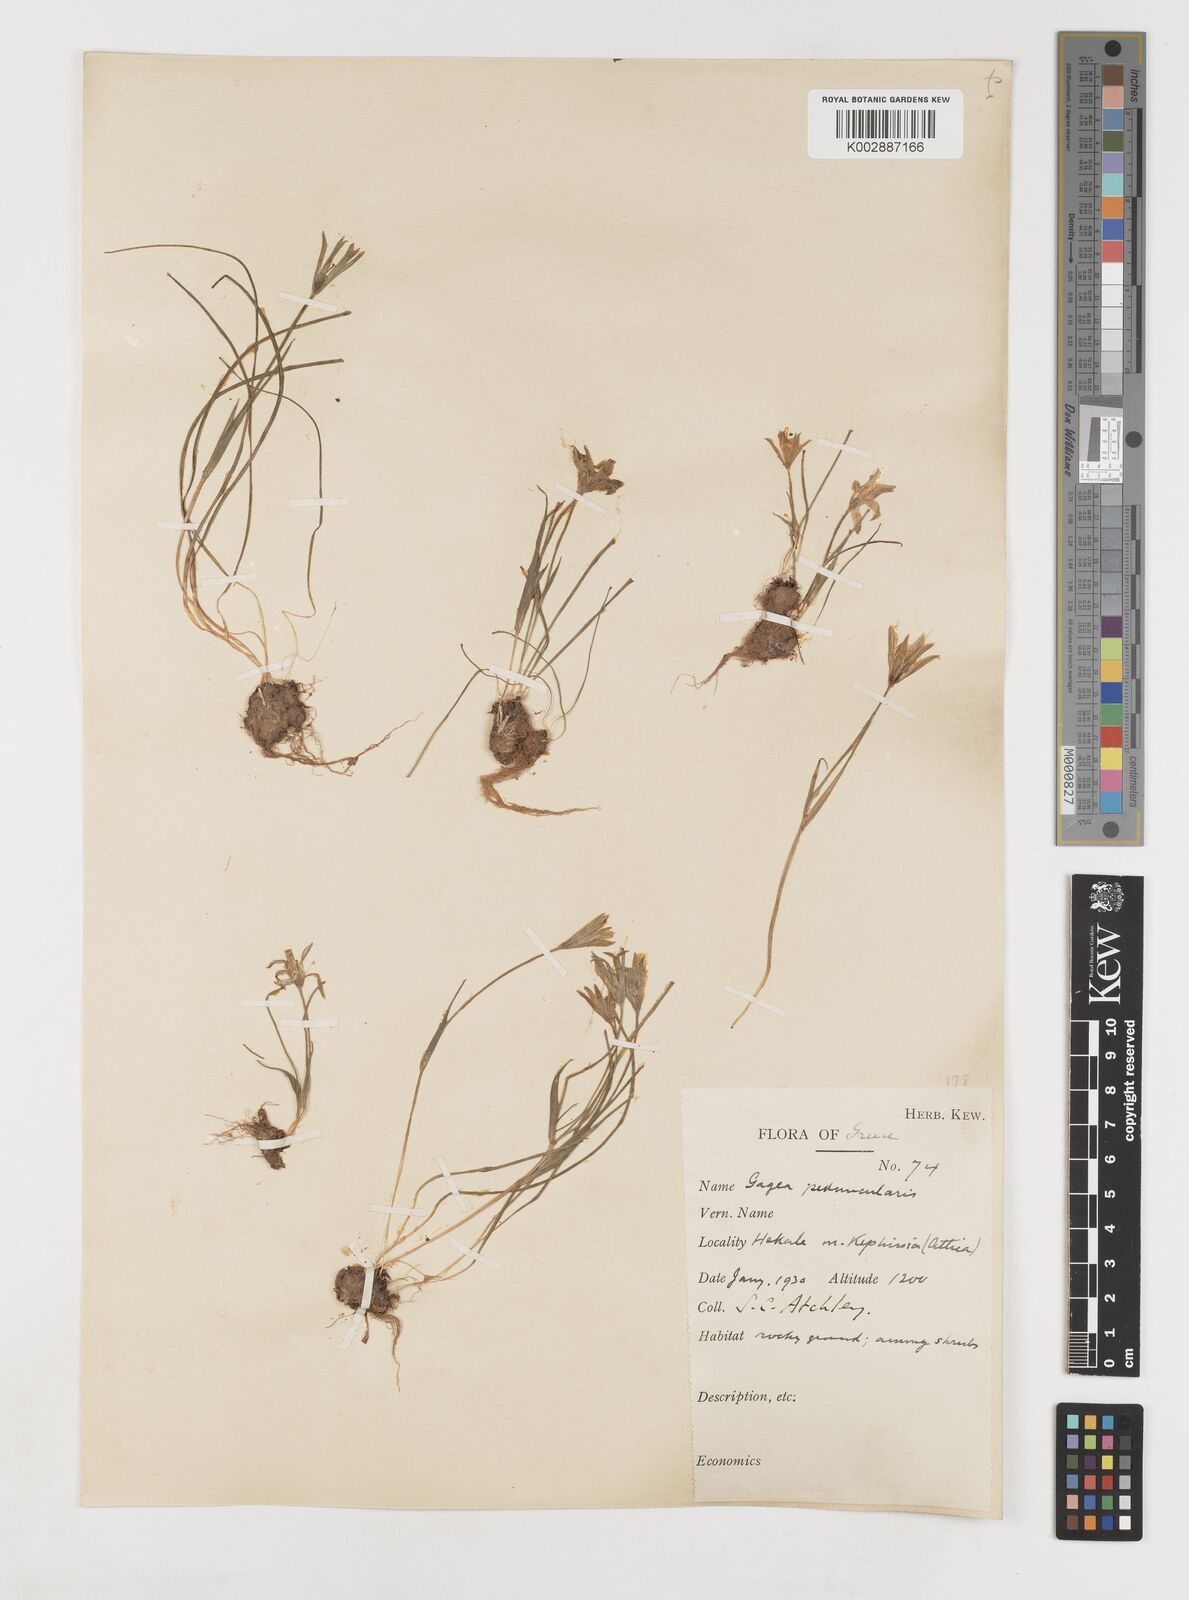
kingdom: Plantae
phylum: Tracheophyta
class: Liliopsida
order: Liliales
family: Liliaceae
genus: Gagea
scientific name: Gagea peduncularis
